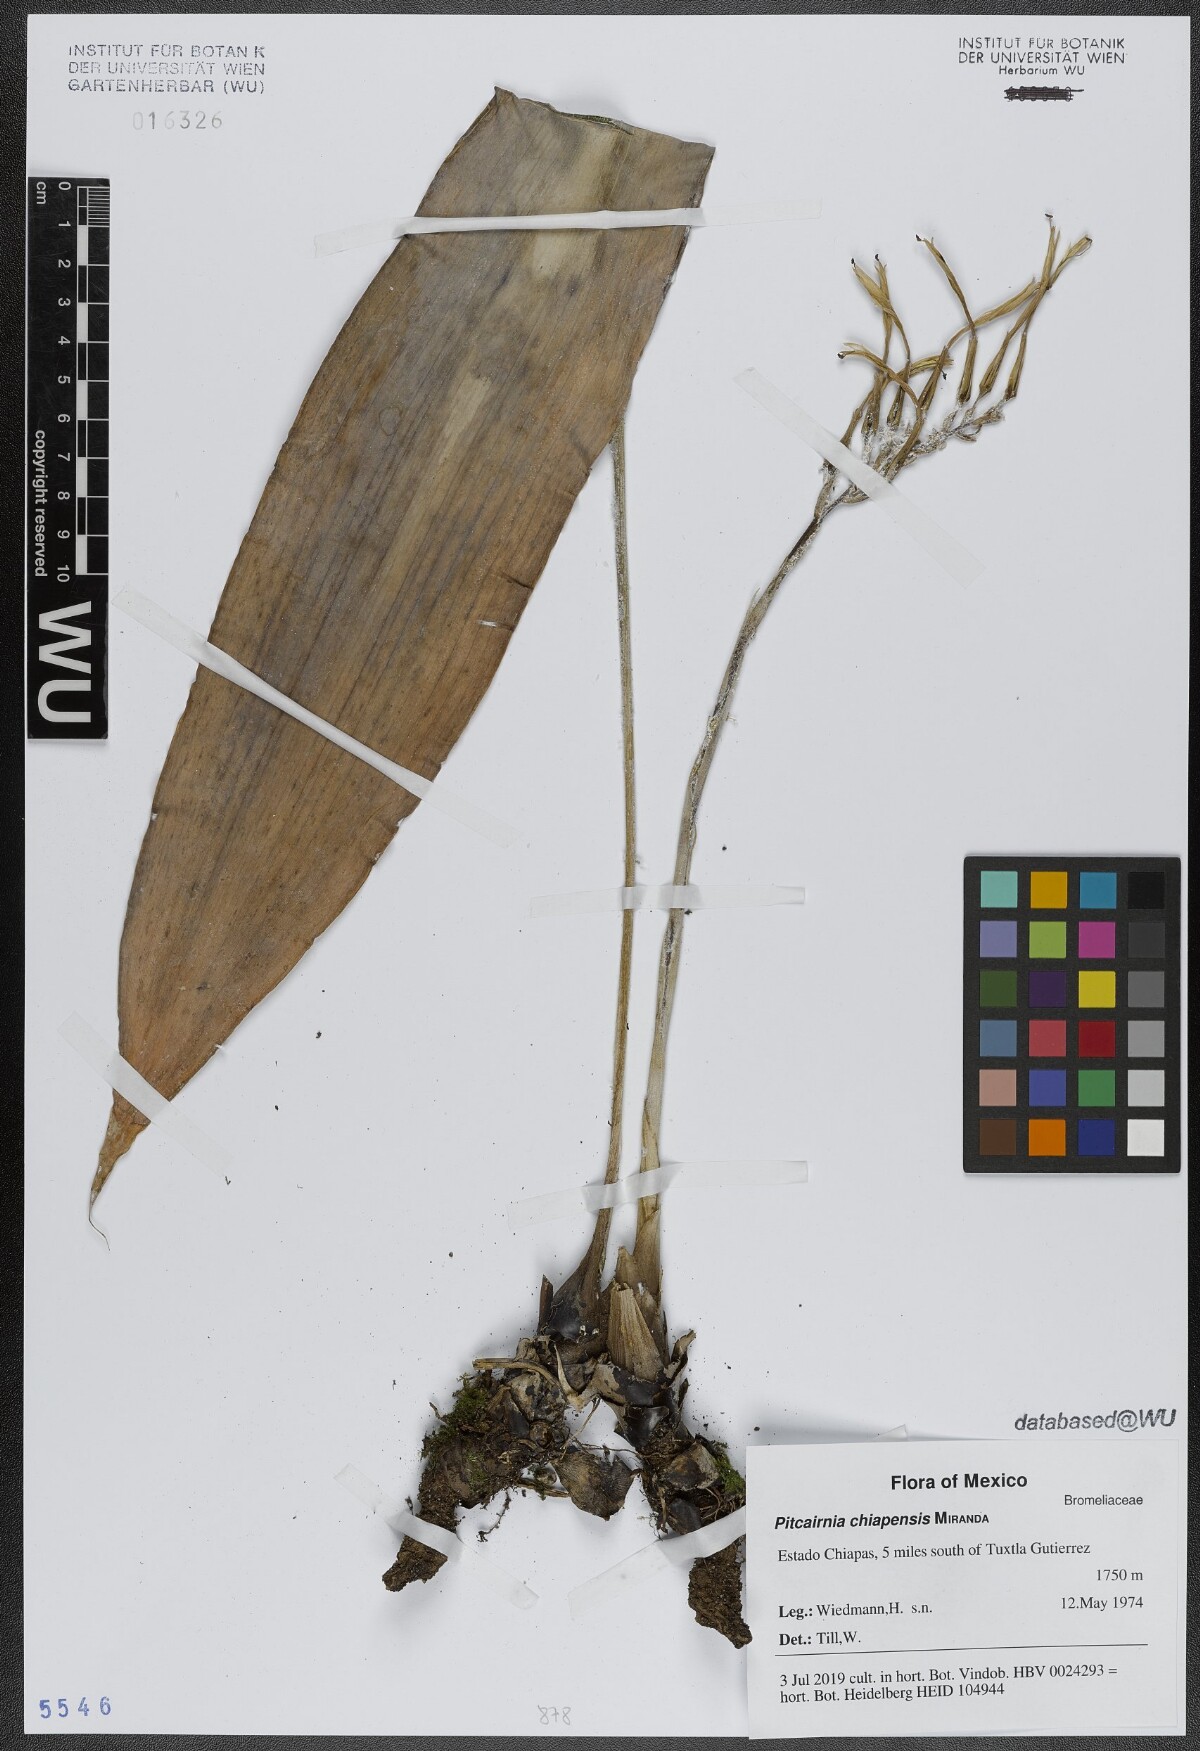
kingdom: Plantae
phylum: Tracheophyta
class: Liliopsida
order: Poales
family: Bromeliaceae
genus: Pitcairnia
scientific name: Pitcairnia chiapensis
